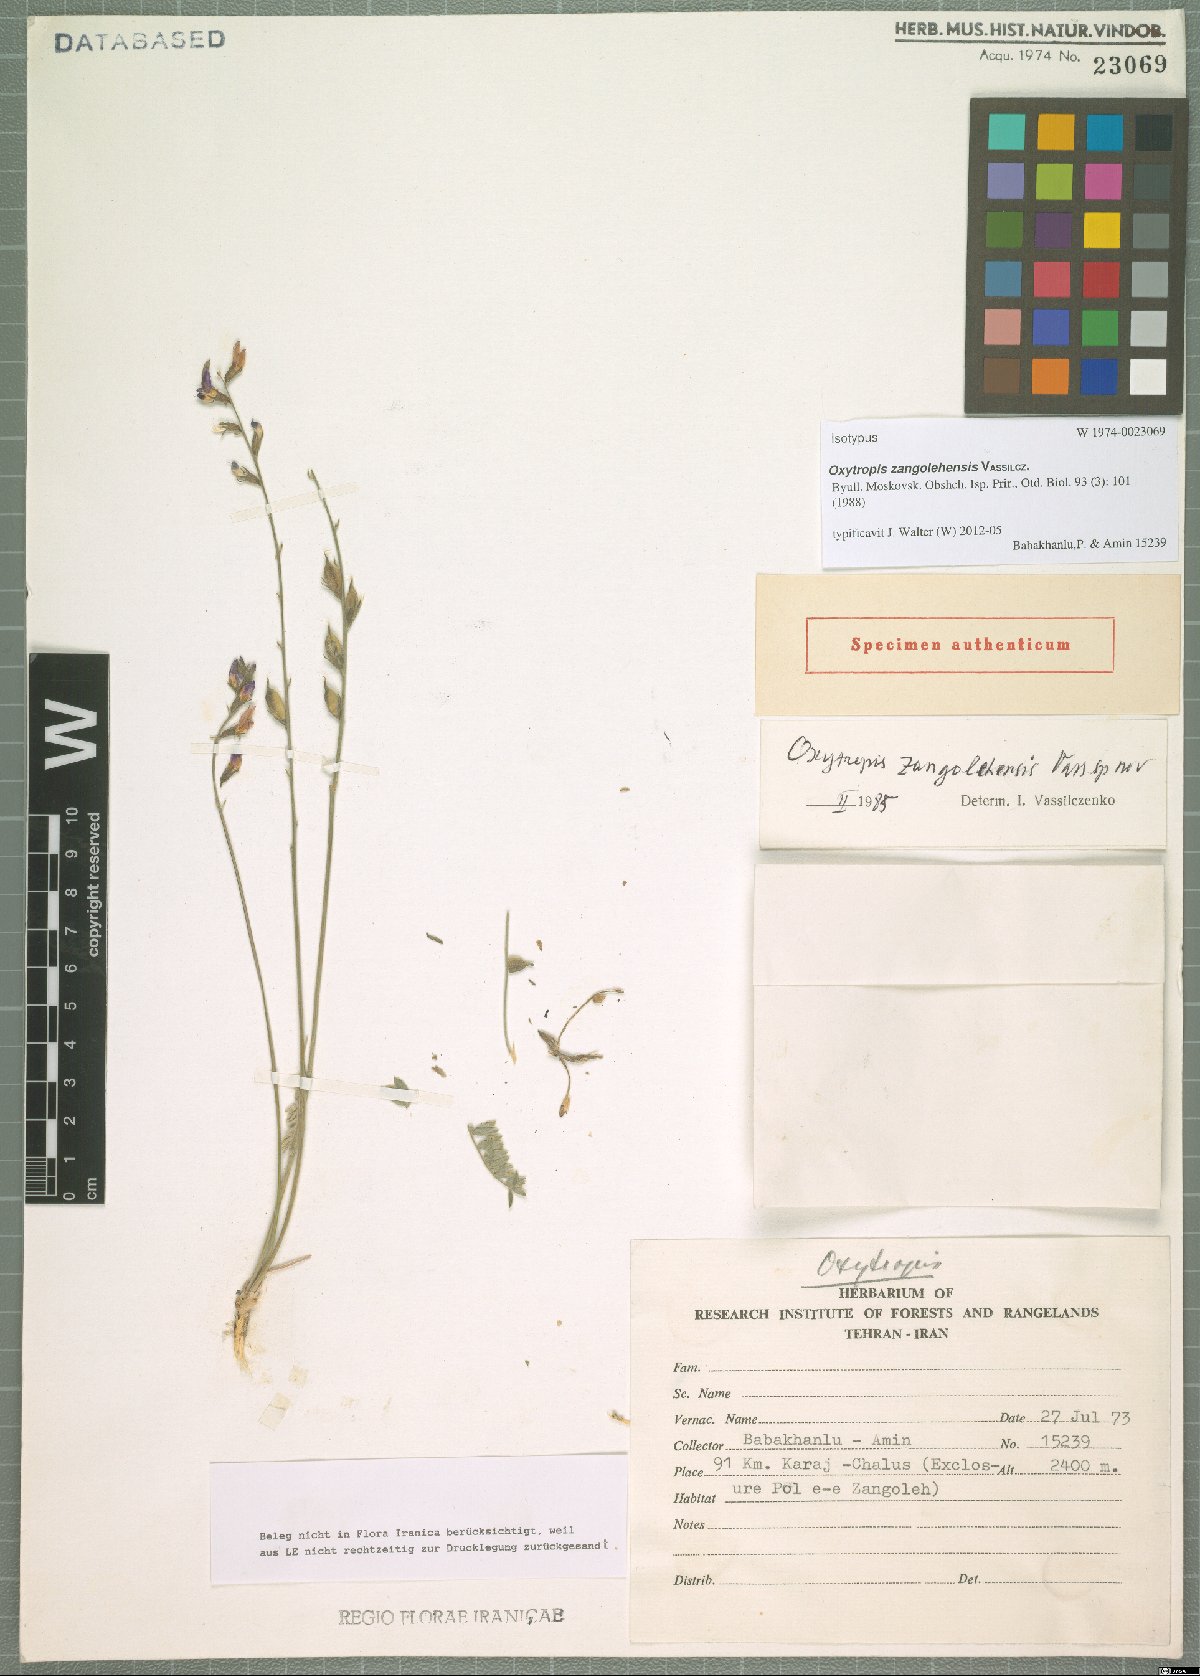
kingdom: Plantae
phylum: Tracheophyta
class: Magnoliopsida
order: Fabales
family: Fabaceae
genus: Oxytropis
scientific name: Oxytropis iranica
